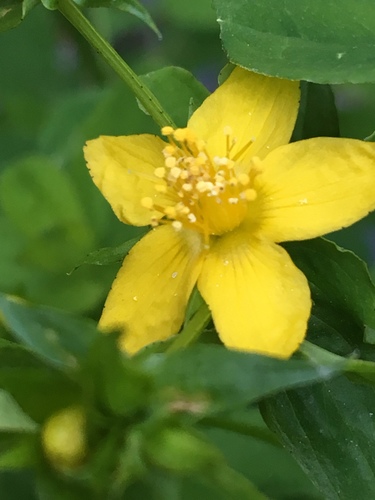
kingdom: Plantae
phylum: Tracheophyta
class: Magnoliopsida
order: Malpighiales
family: Hypericaceae
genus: Hypericum
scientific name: Hypericum
